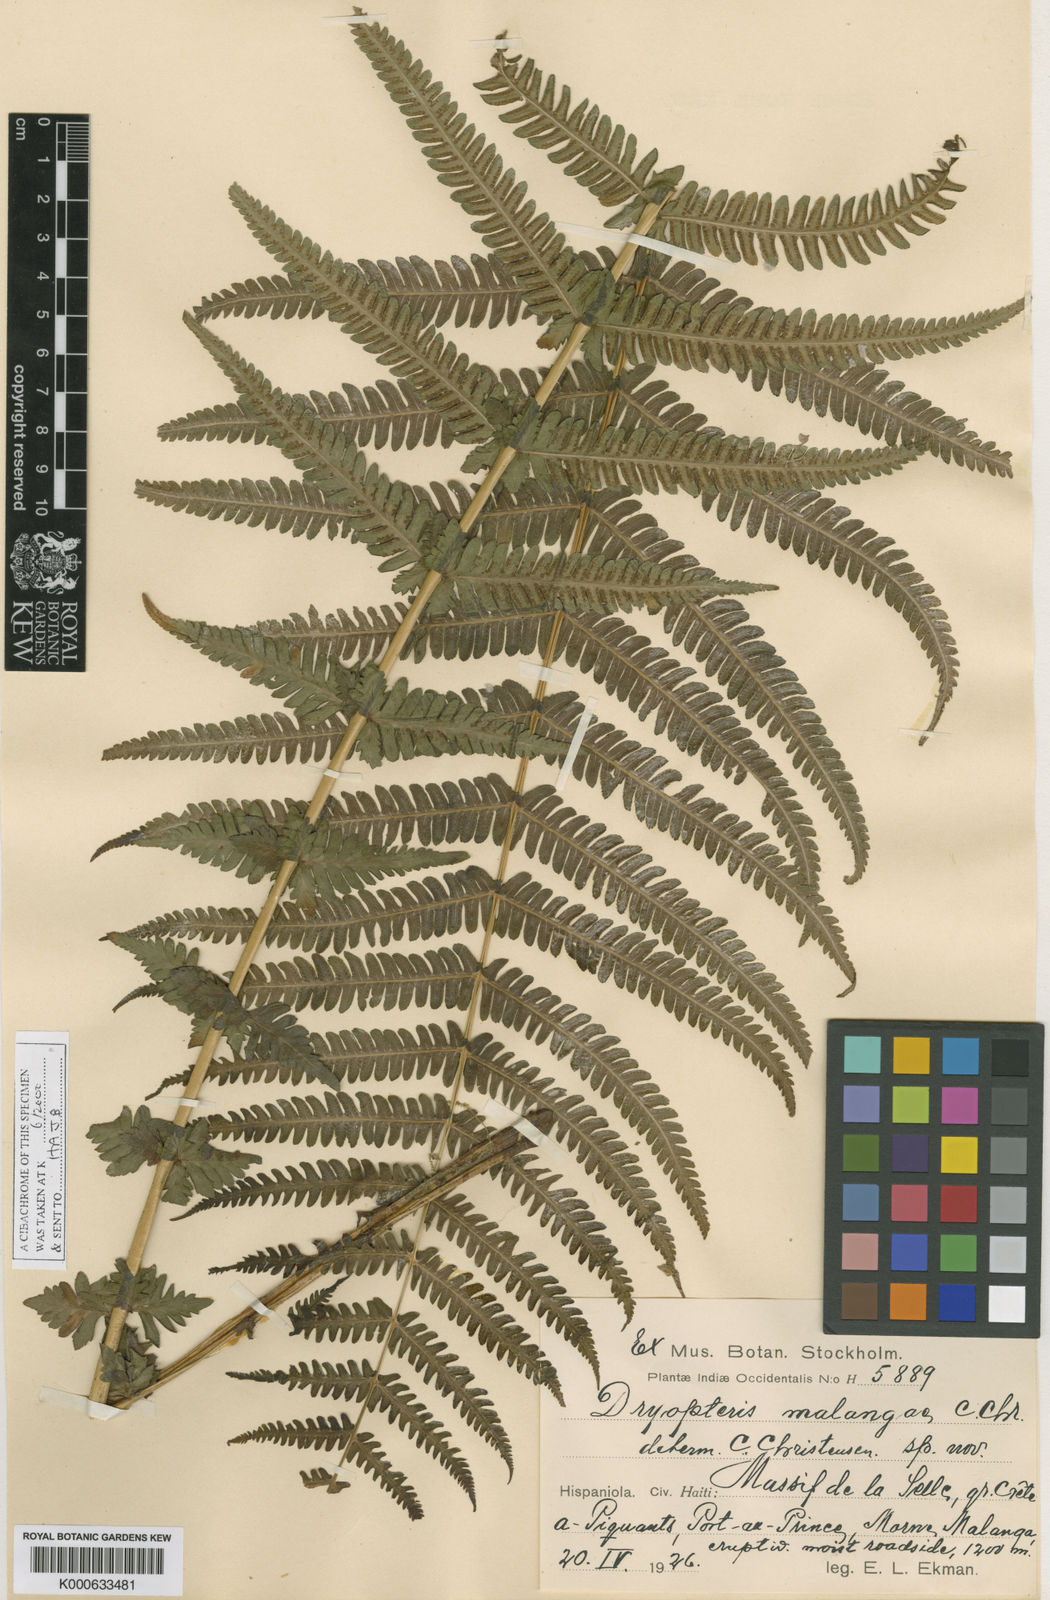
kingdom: Plantae
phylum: Tracheophyta
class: Polypodiopsida
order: Polypodiales
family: Thelypteridaceae
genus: Amauropelta
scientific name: Amauropelta malangae
